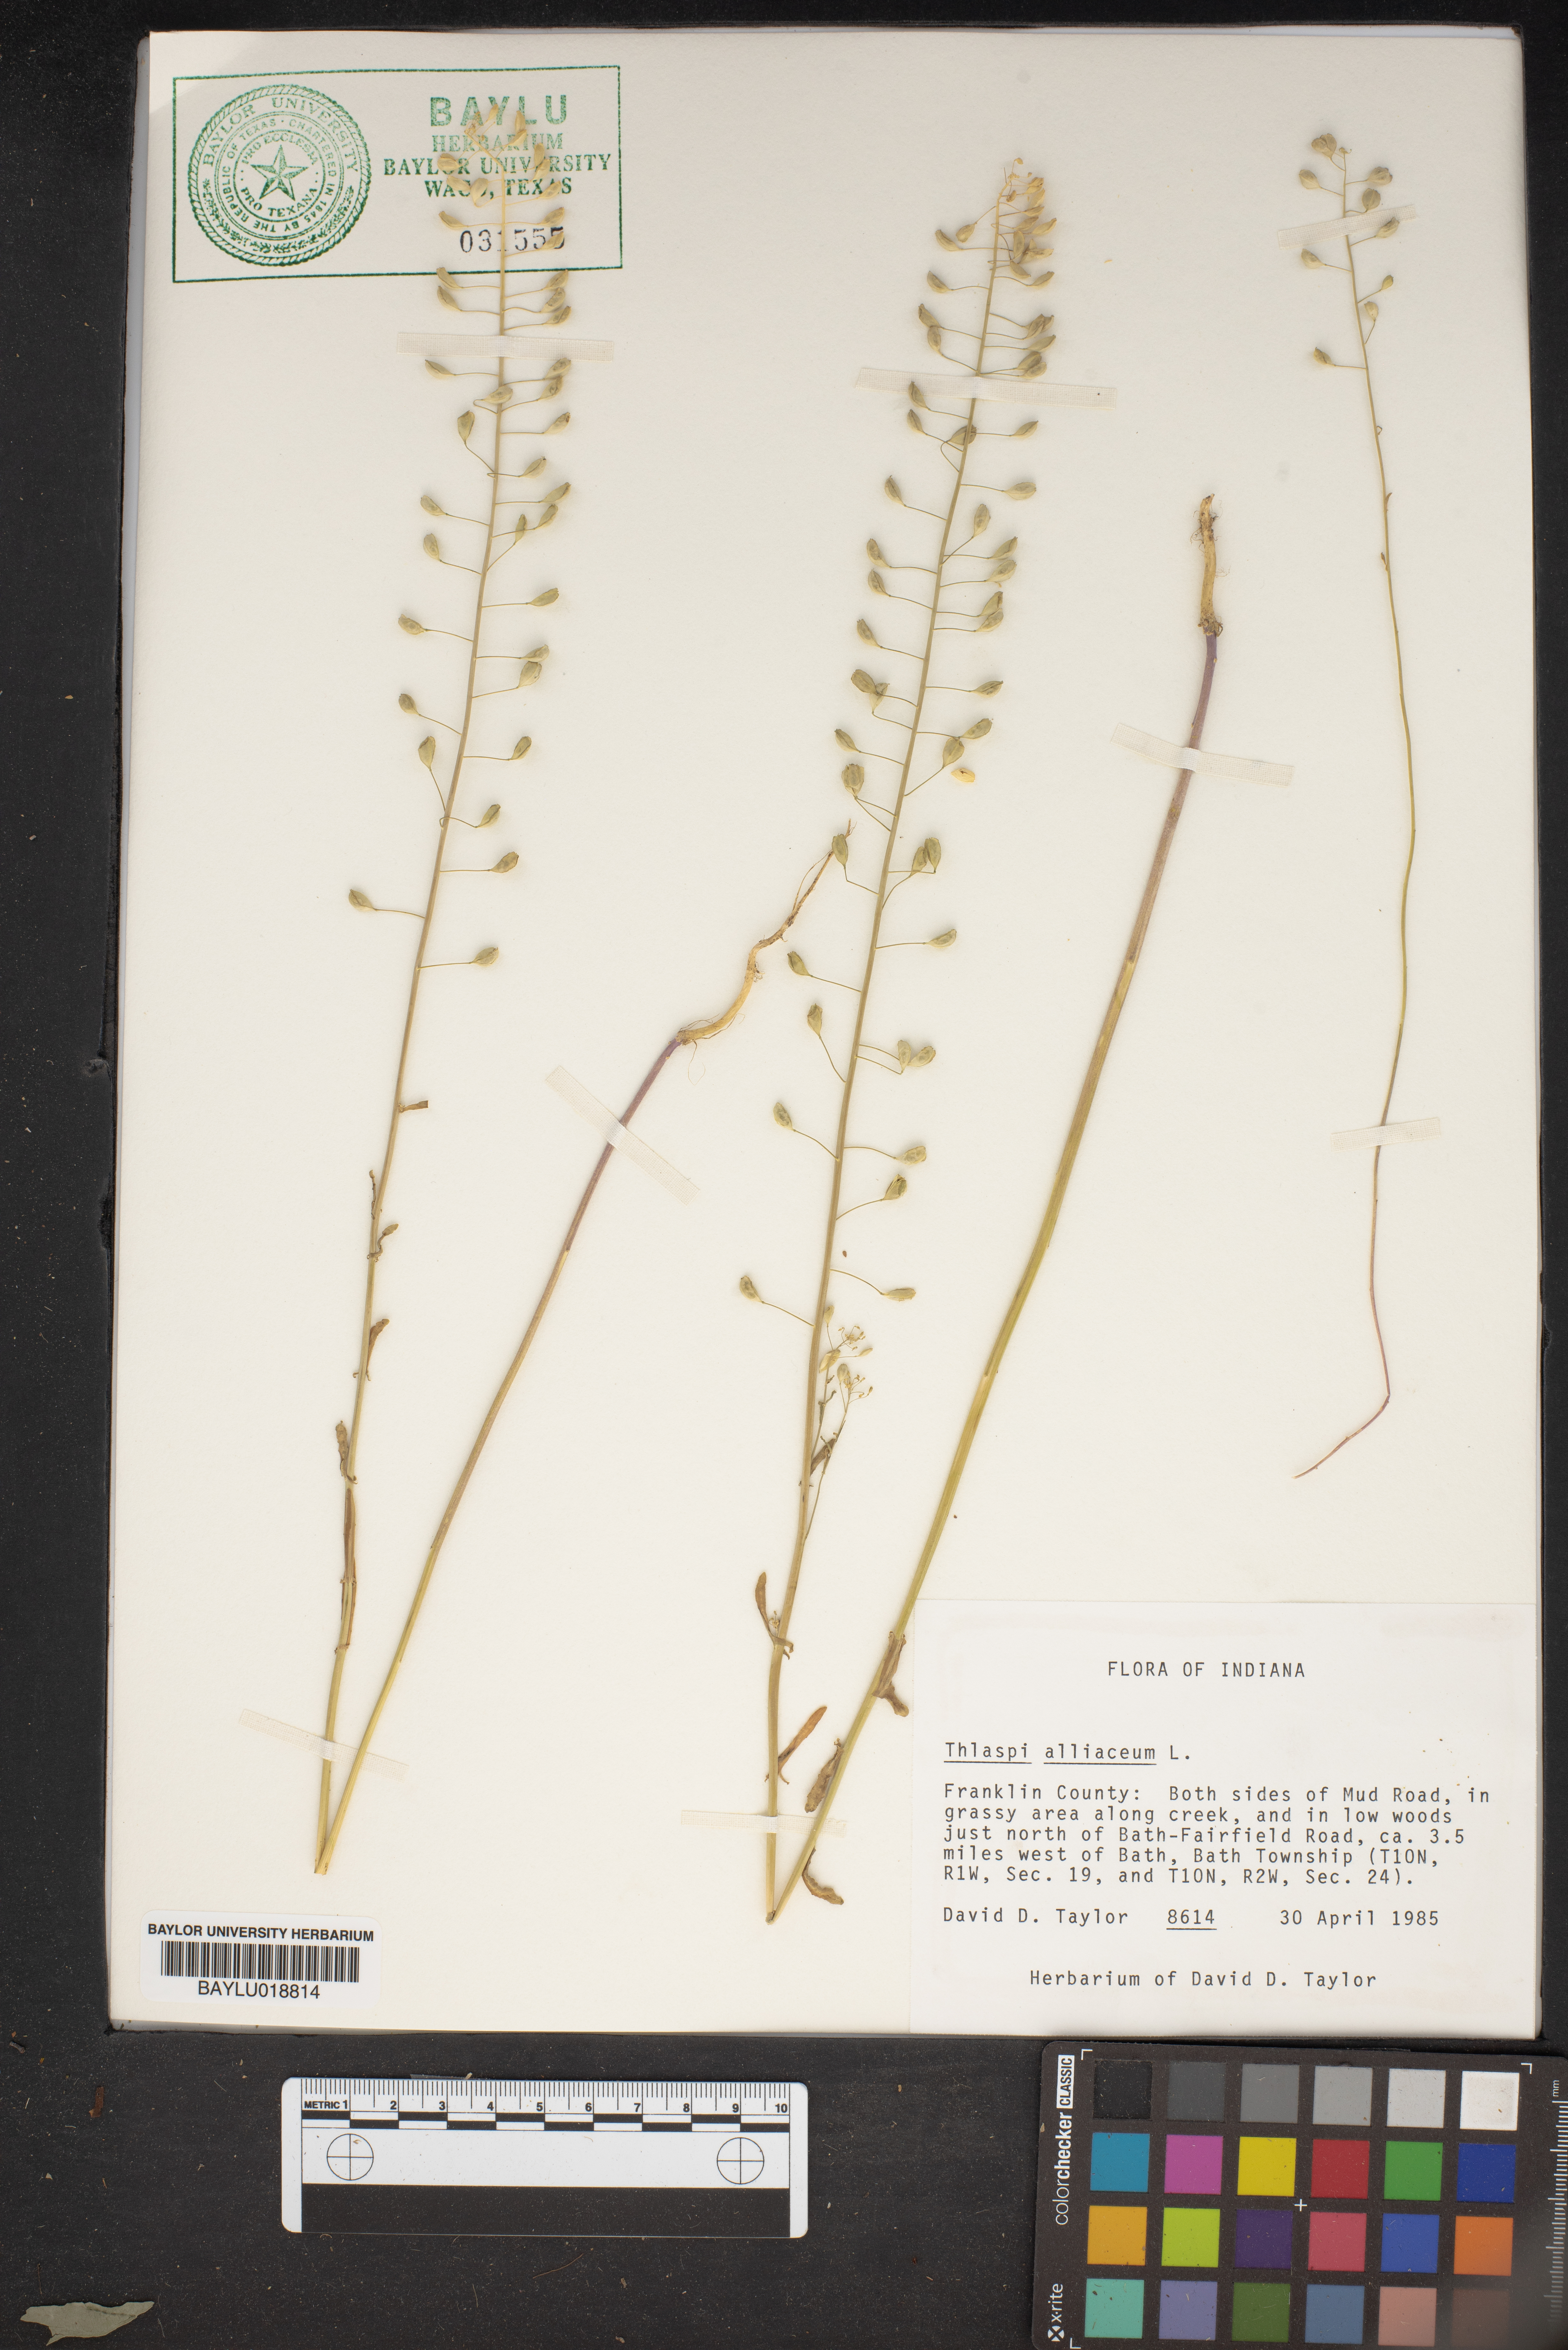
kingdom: Plantae
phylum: Tracheophyta
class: Magnoliopsida
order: Brassicales
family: Brassicaceae
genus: Mummenhoffia
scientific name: Mummenhoffia alliacea
